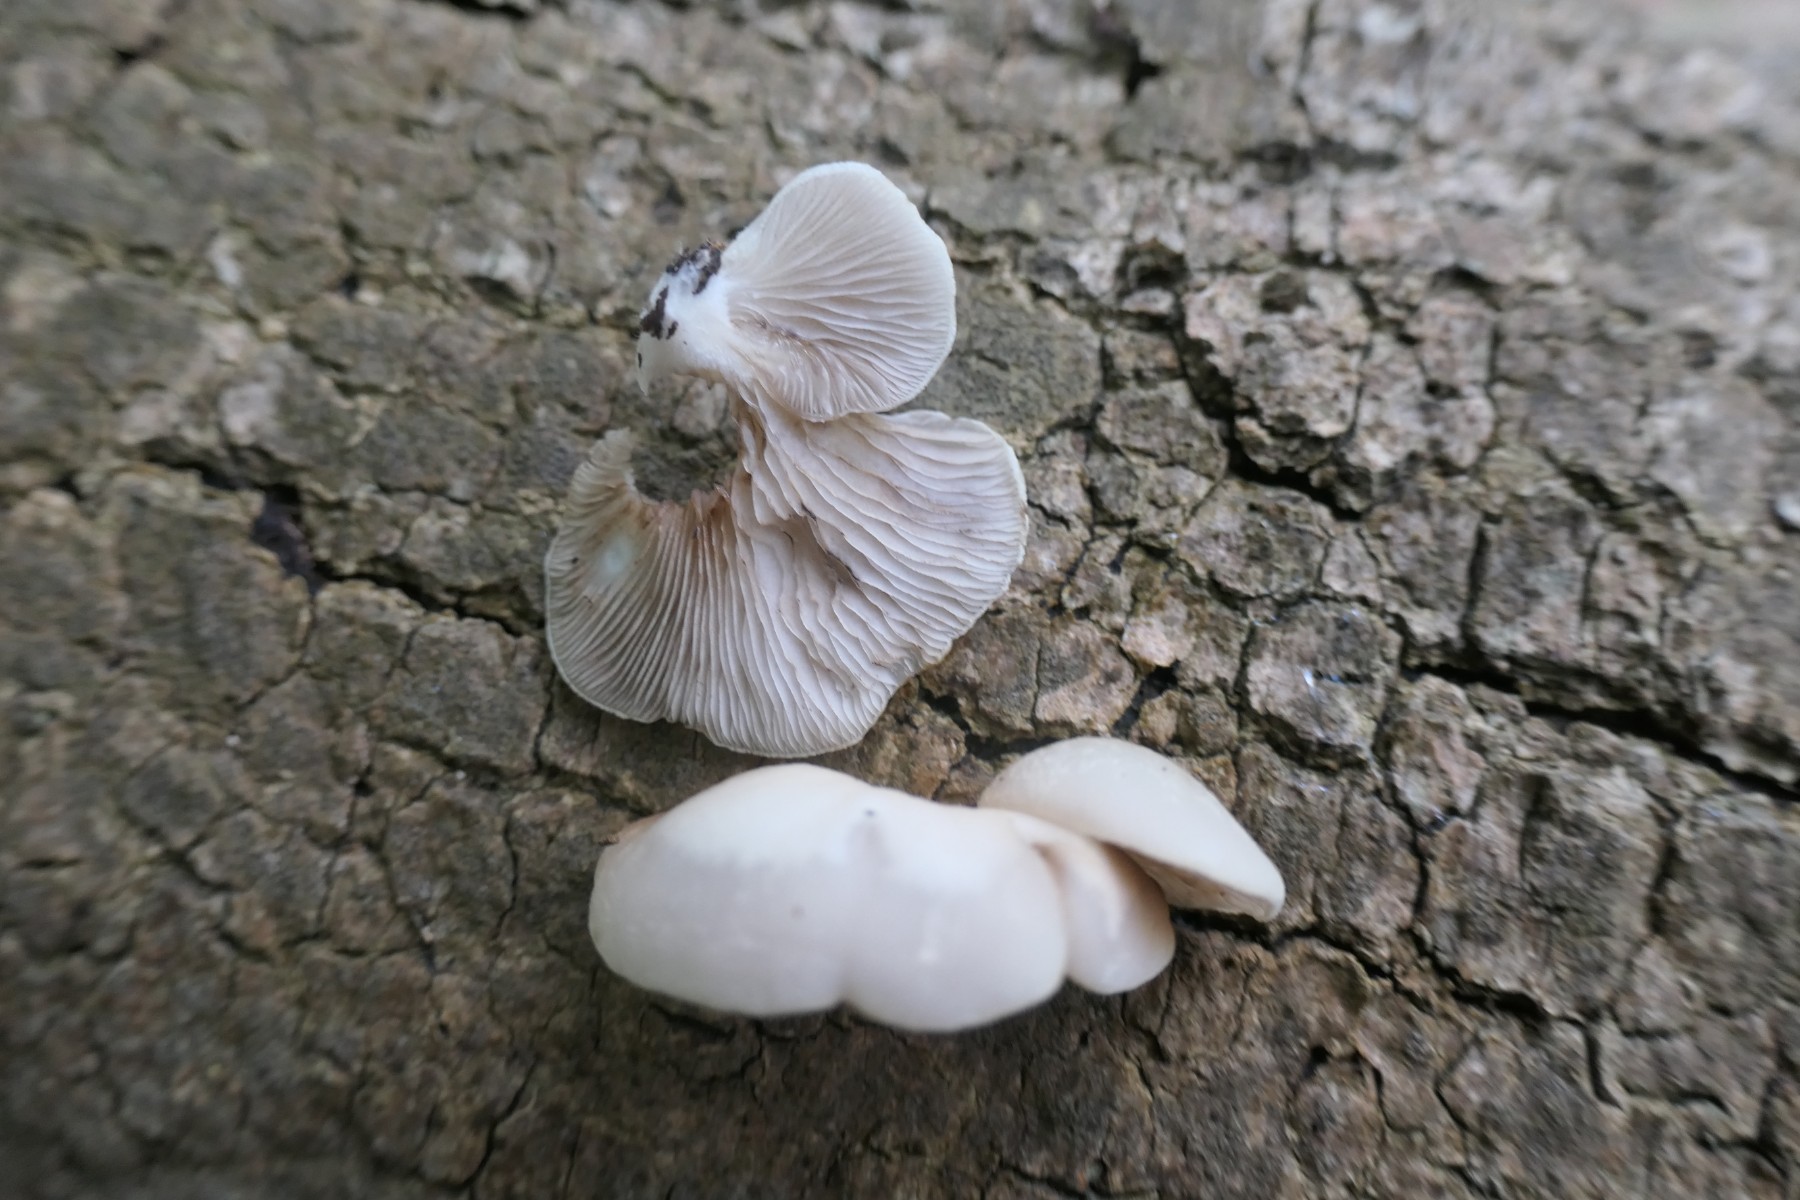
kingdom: Fungi
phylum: Basidiomycota
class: Agaricomycetes
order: Agaricales
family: Crepidotaceae
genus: Crepidotus
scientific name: Crepidotus mollis
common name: blød muslingesvamp
